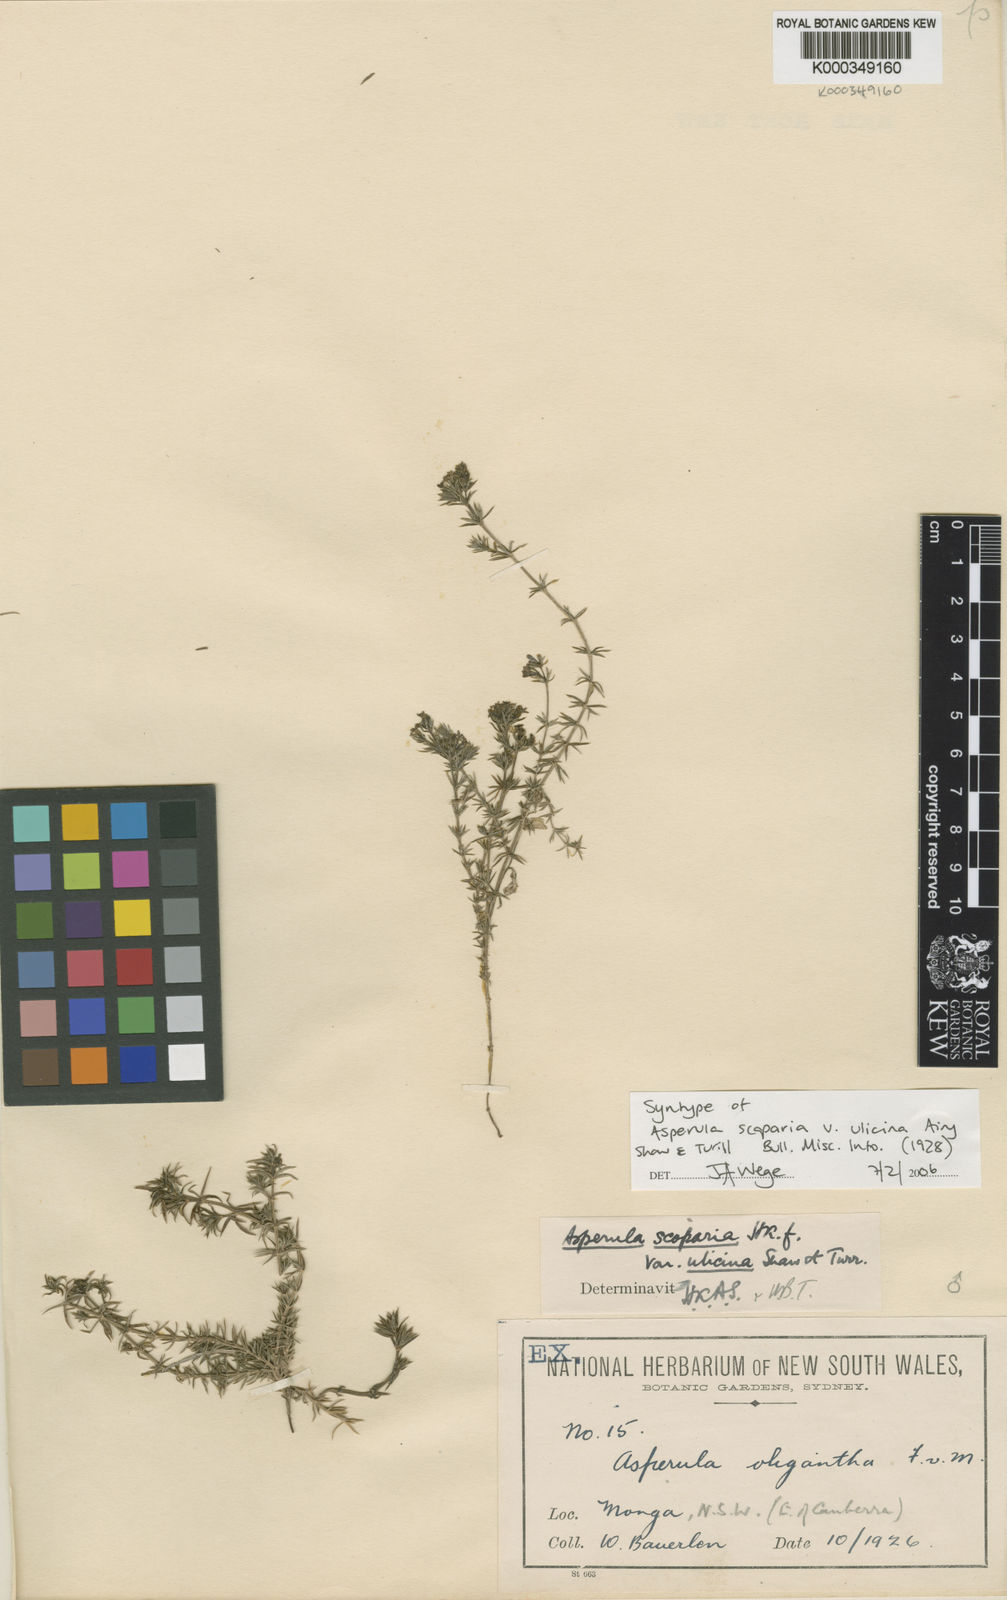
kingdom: Plantae
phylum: Tracheophyta
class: Magnoliopsida
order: Gentianales
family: Rubiaceae
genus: Asperula
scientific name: Asperula scoparia
